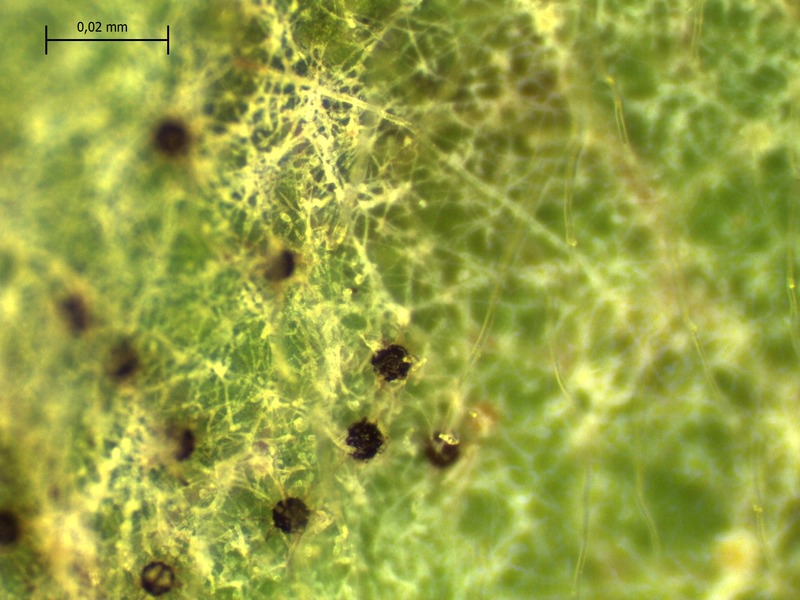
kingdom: Fungi
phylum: Ascomycota
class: Leotiomycetes
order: Helotiales
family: Erysiphaceae
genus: Podosphaera
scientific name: Podosphaera aphanis
